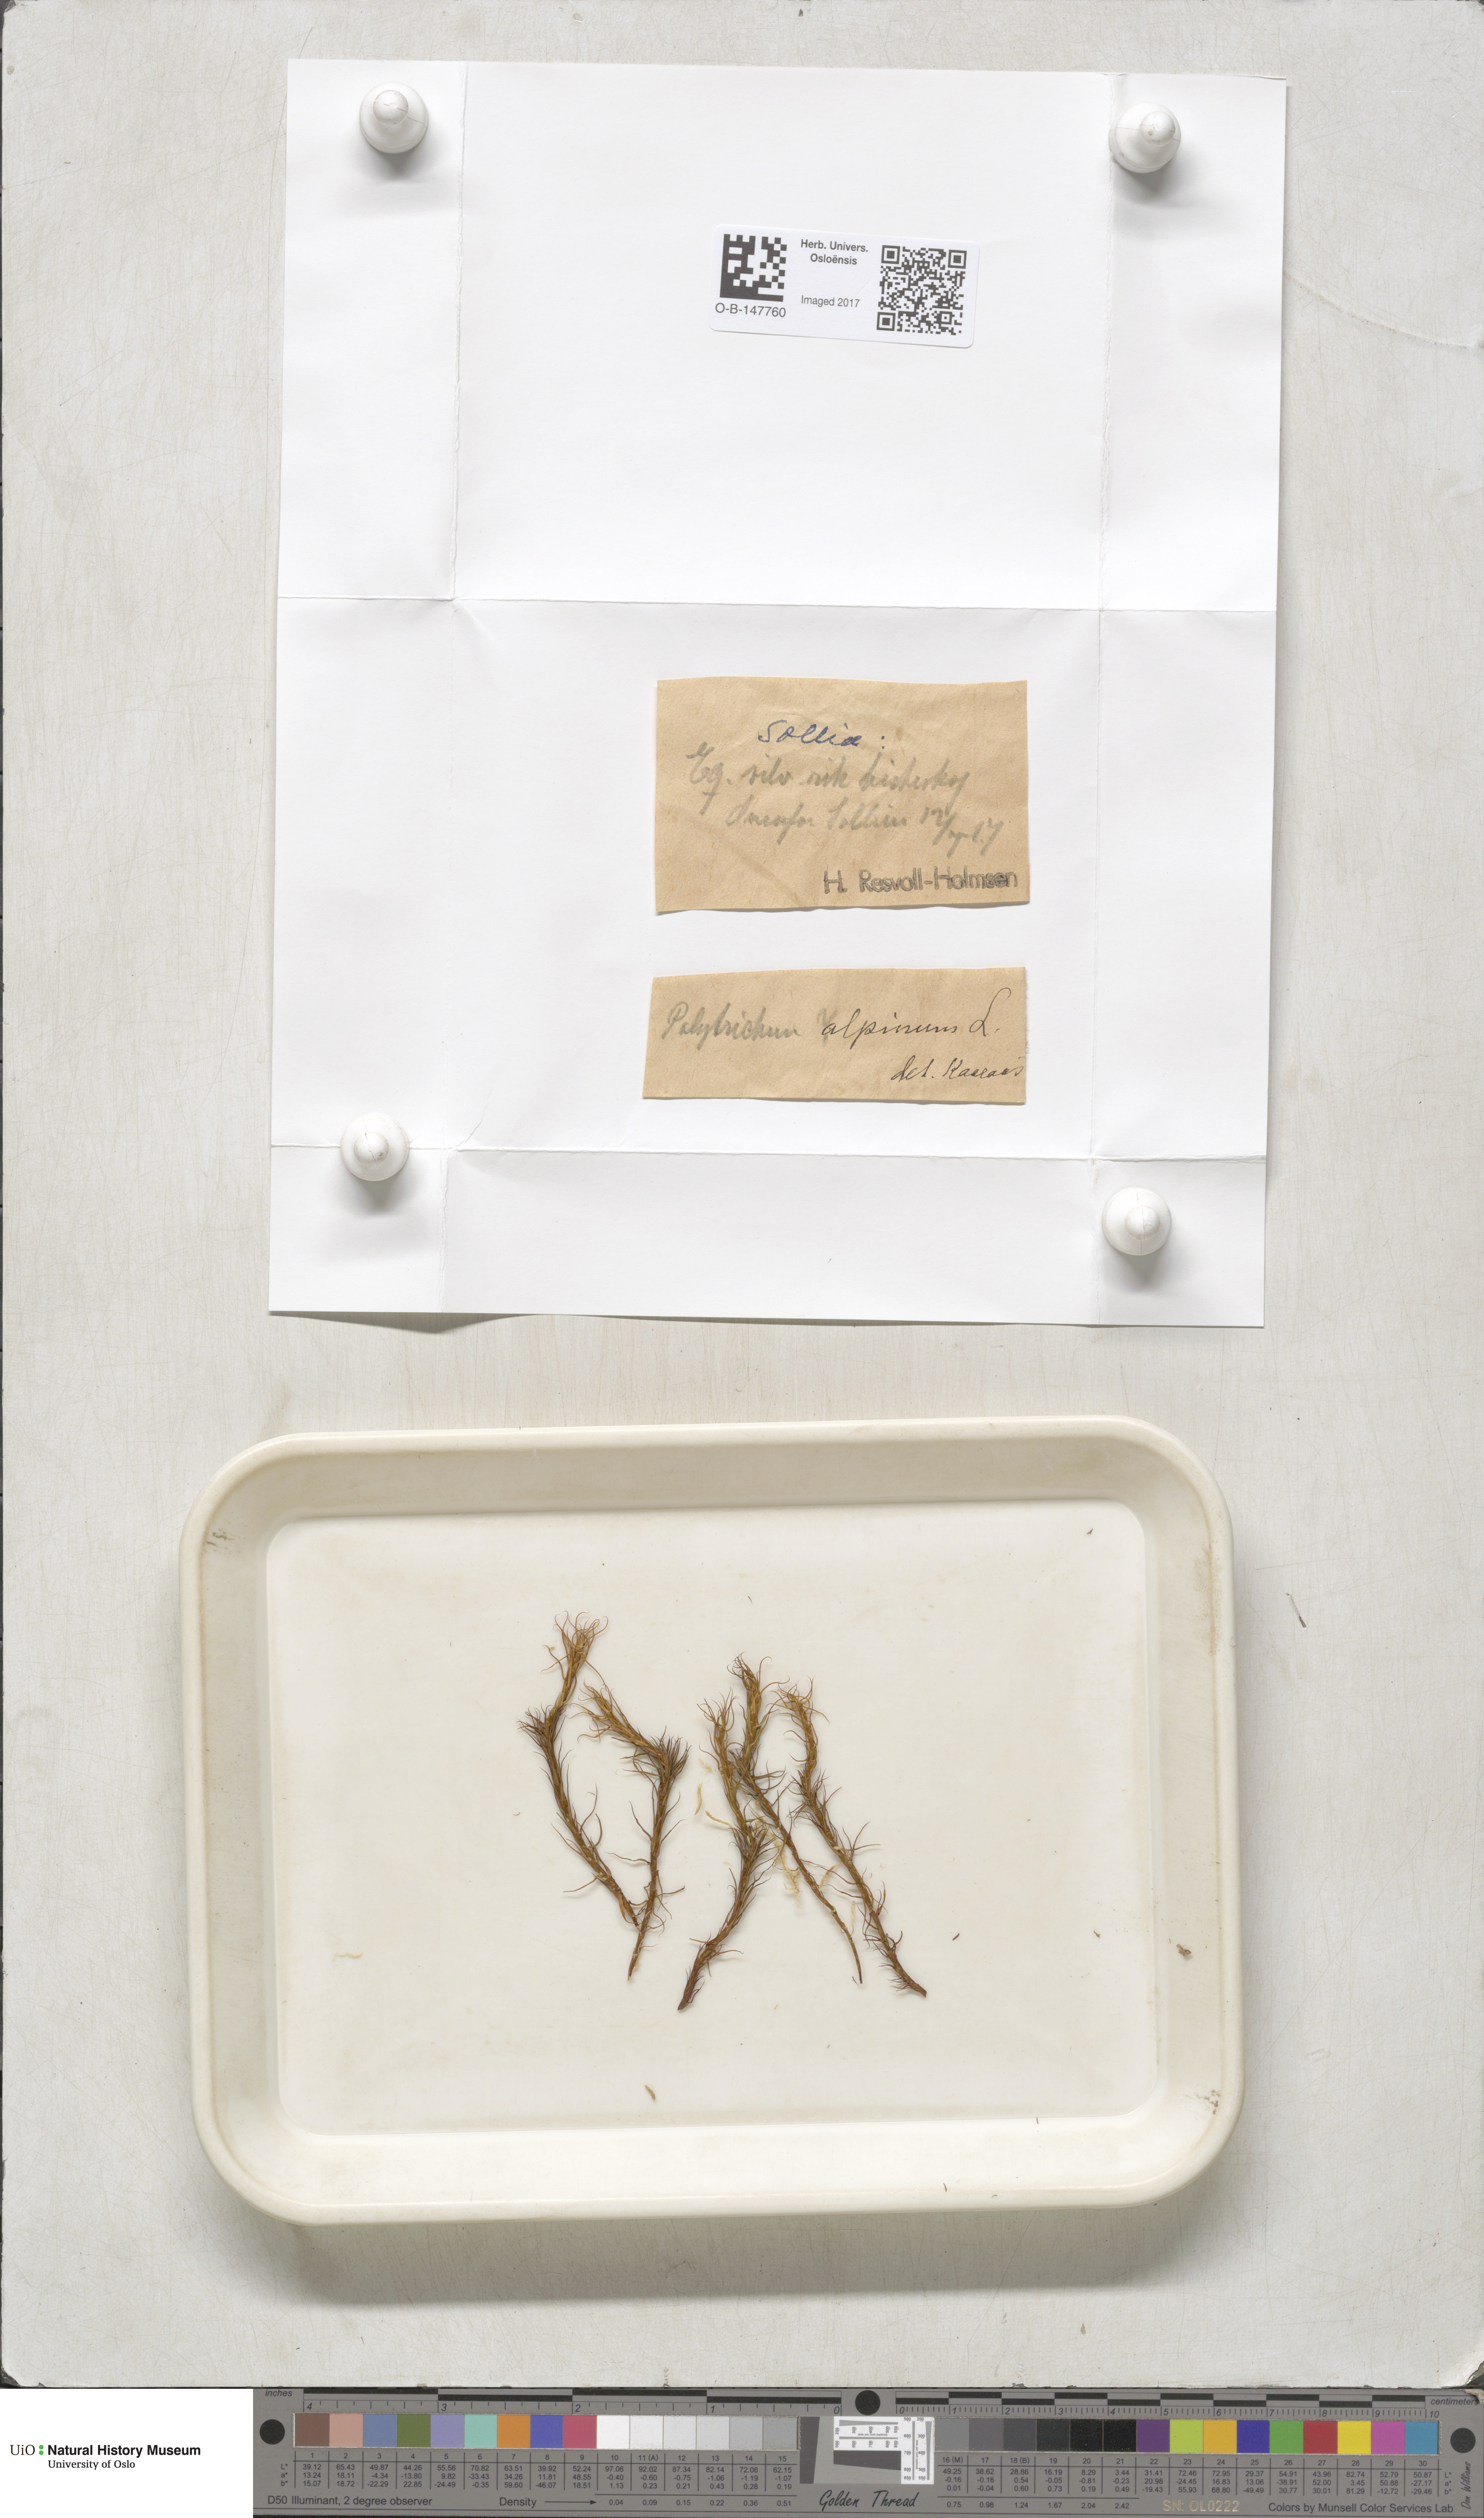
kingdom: Plantae
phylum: Bryophyta
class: Polytrichopsida
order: Polytrichales
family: Polytrichaceae
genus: Polytrichastrum
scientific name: Polytrichastrum alpinum
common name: Alpine haircap
